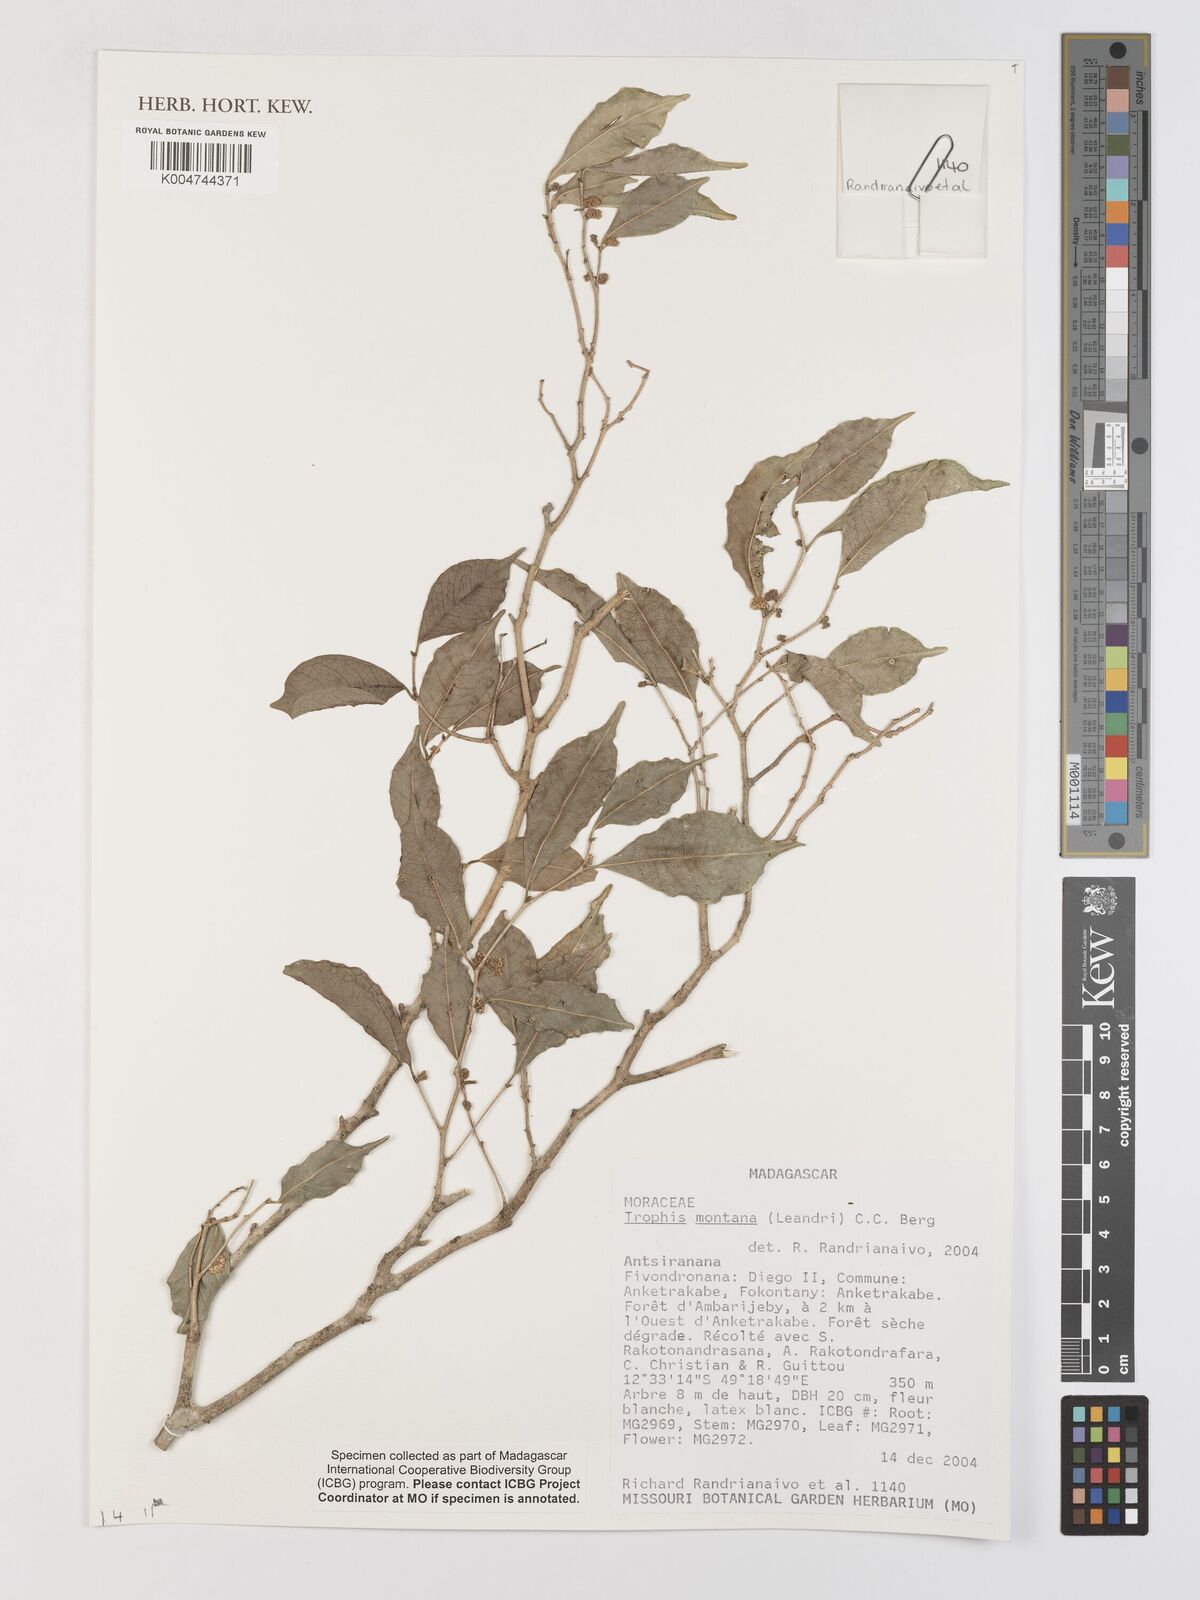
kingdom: Plantae
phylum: Tracheophyta
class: Magnoliopsida
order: Rosales
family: Moraceae
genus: Maillardia
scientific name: Maillardia montana
